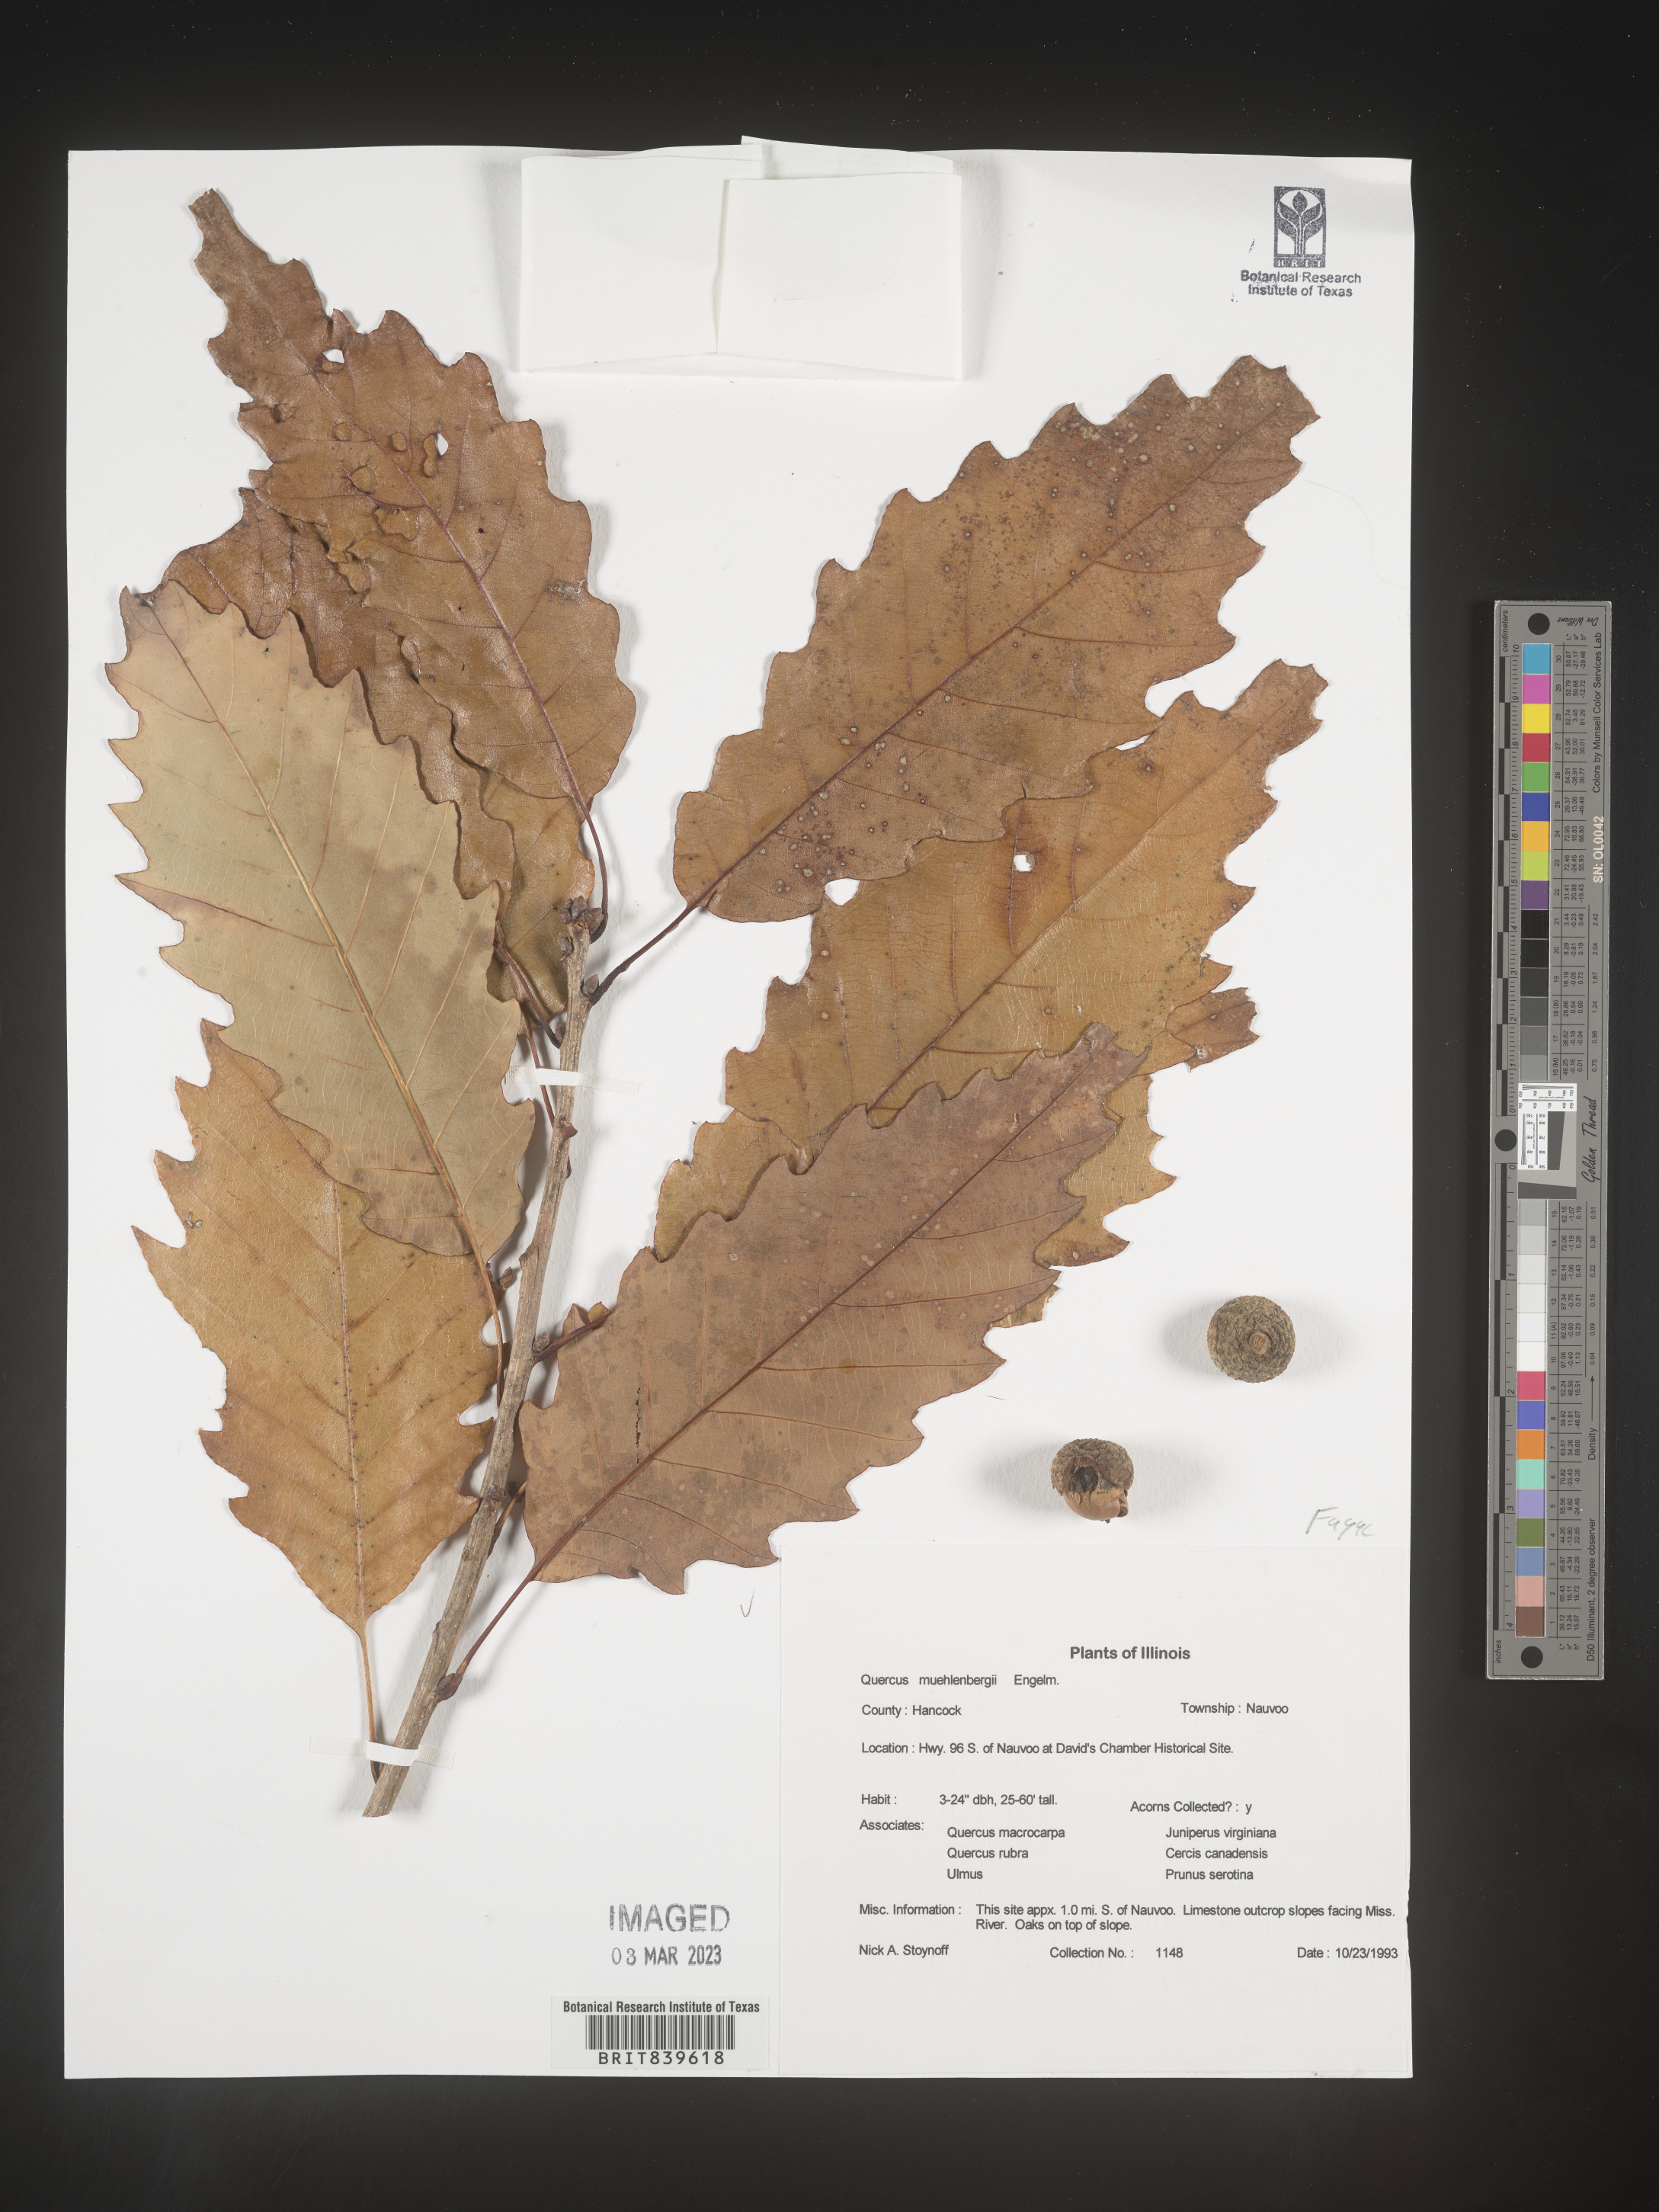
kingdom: Plantae
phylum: Tracheophyta
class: Magnoliopsida
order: Fagales
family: Fagaceae
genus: Quercus
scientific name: Quercus muehlenbergii
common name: Chinkapin oak
